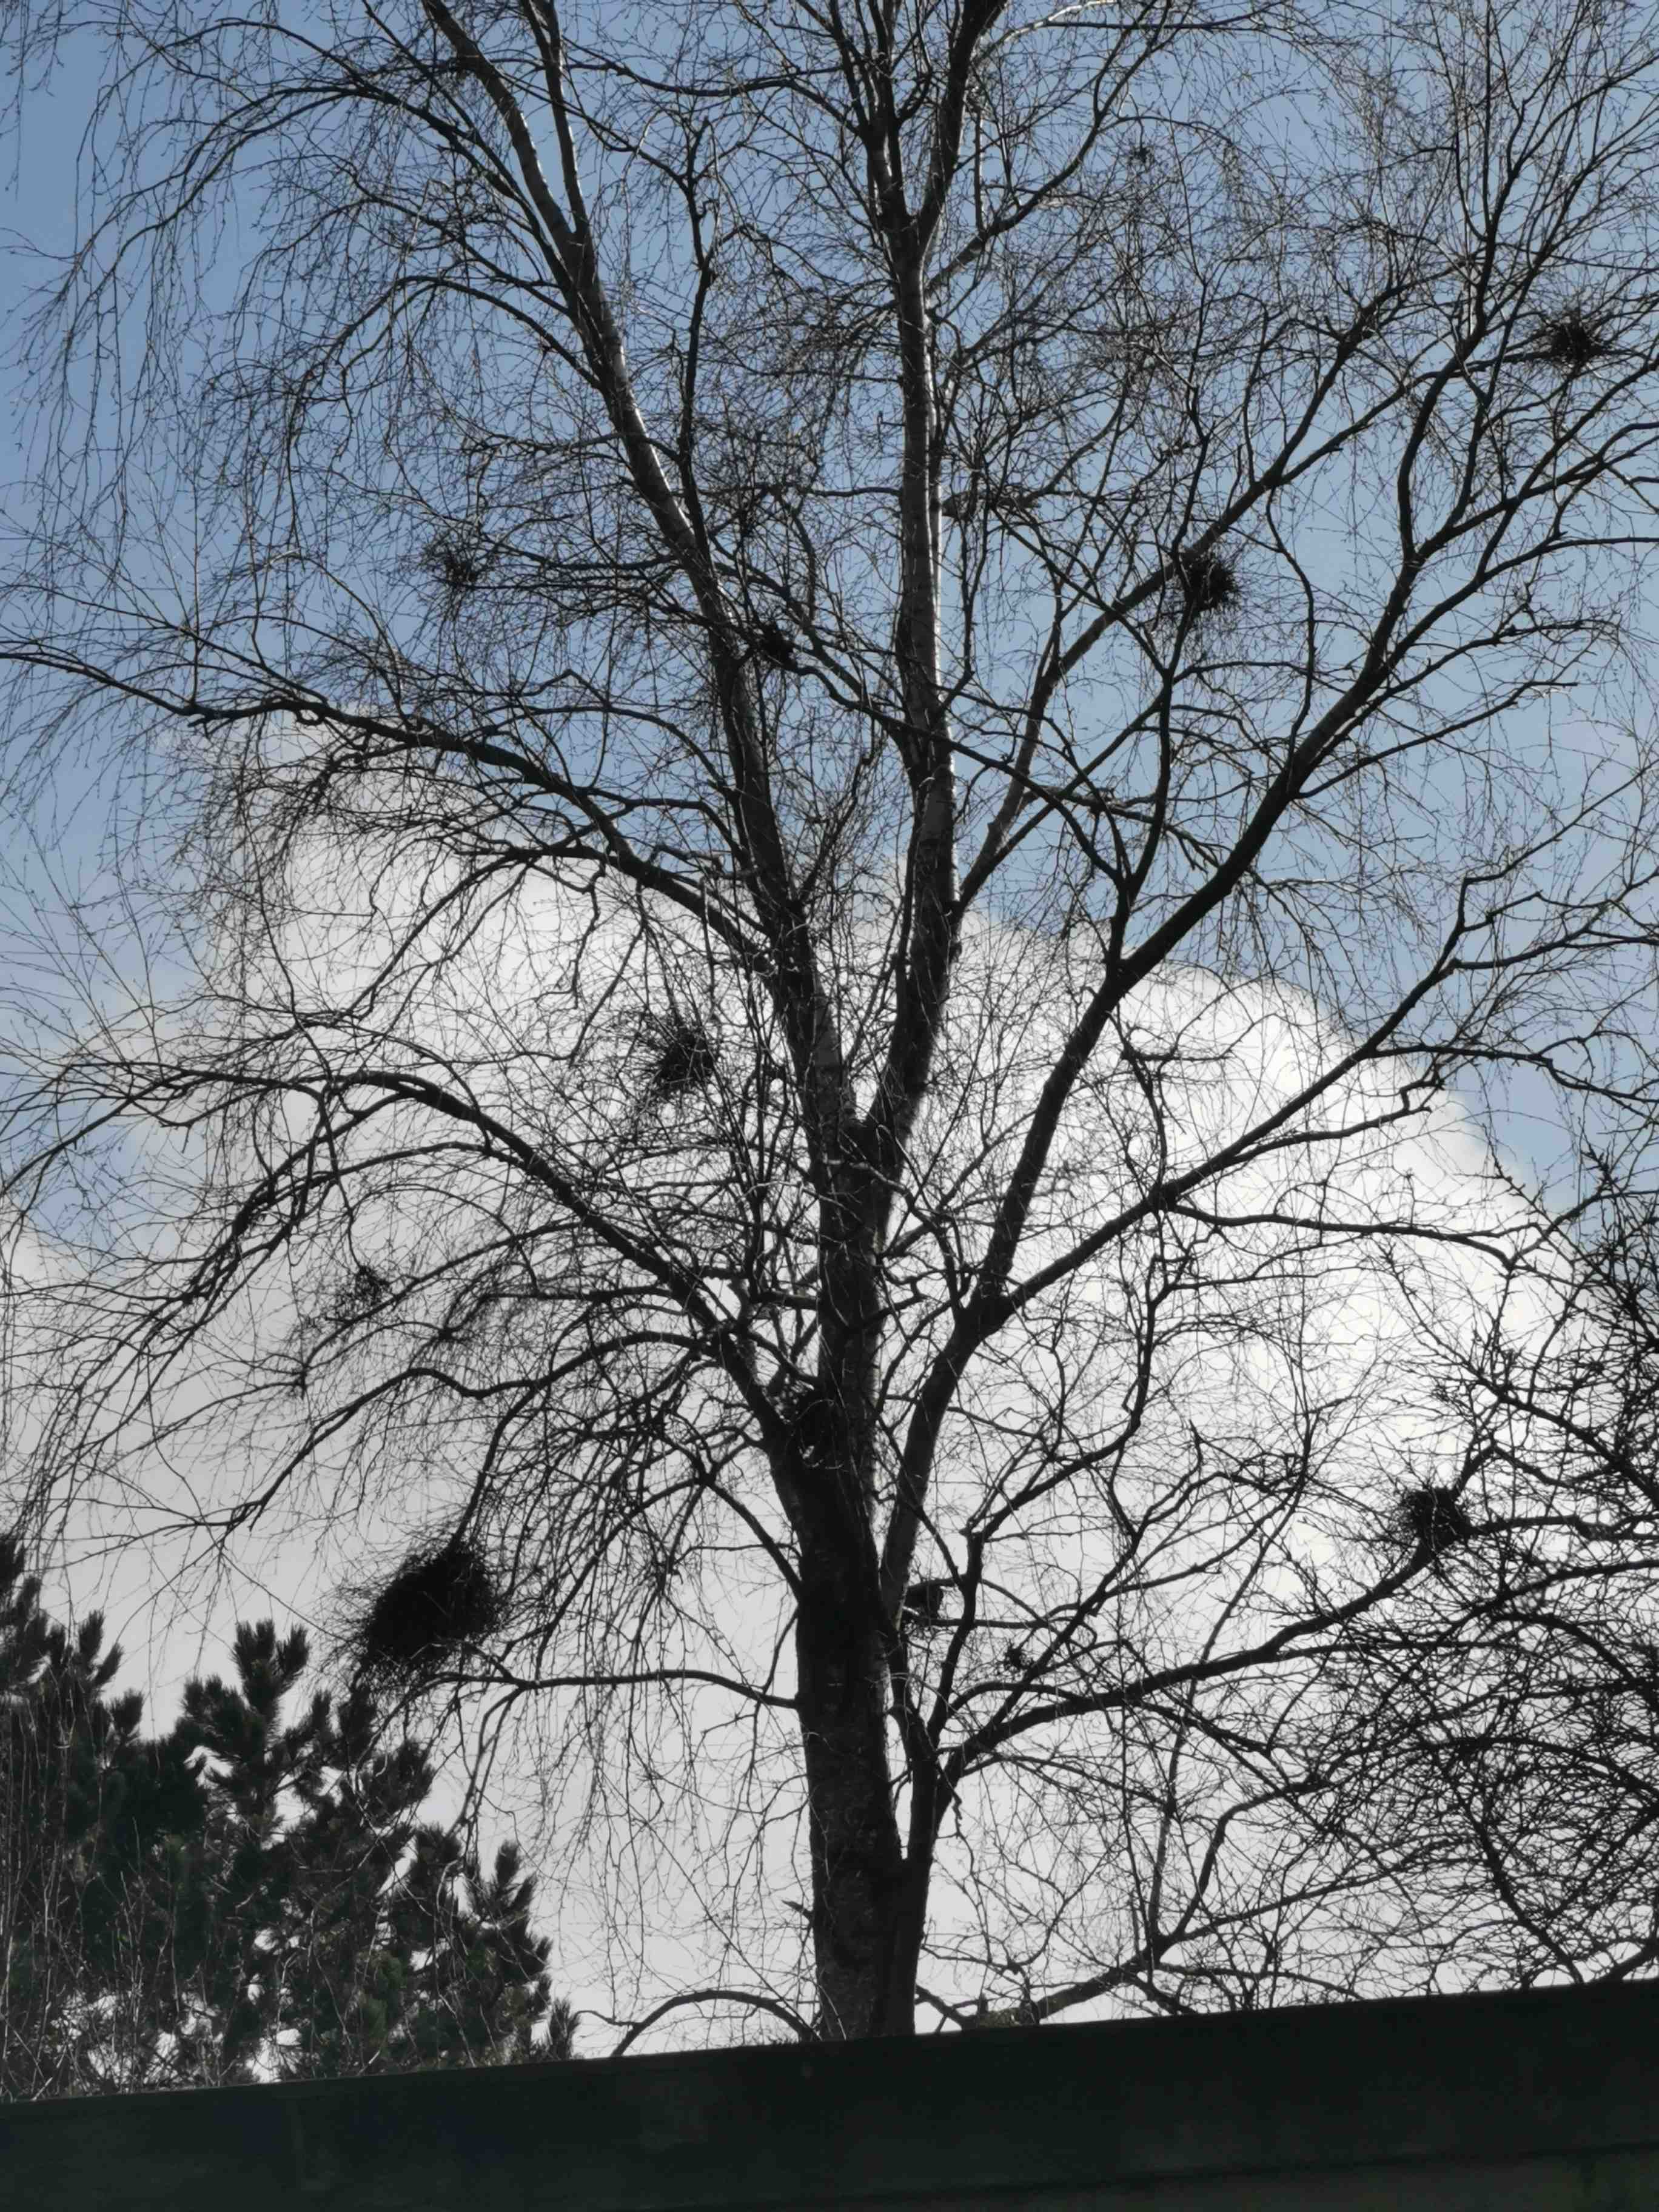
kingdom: Fungi
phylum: Ascomycota
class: Taphrinomycetes
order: Taphrinales
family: Taphrinaceae
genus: Taphrina
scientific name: Taphrina betulina
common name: hekse-sækdug
